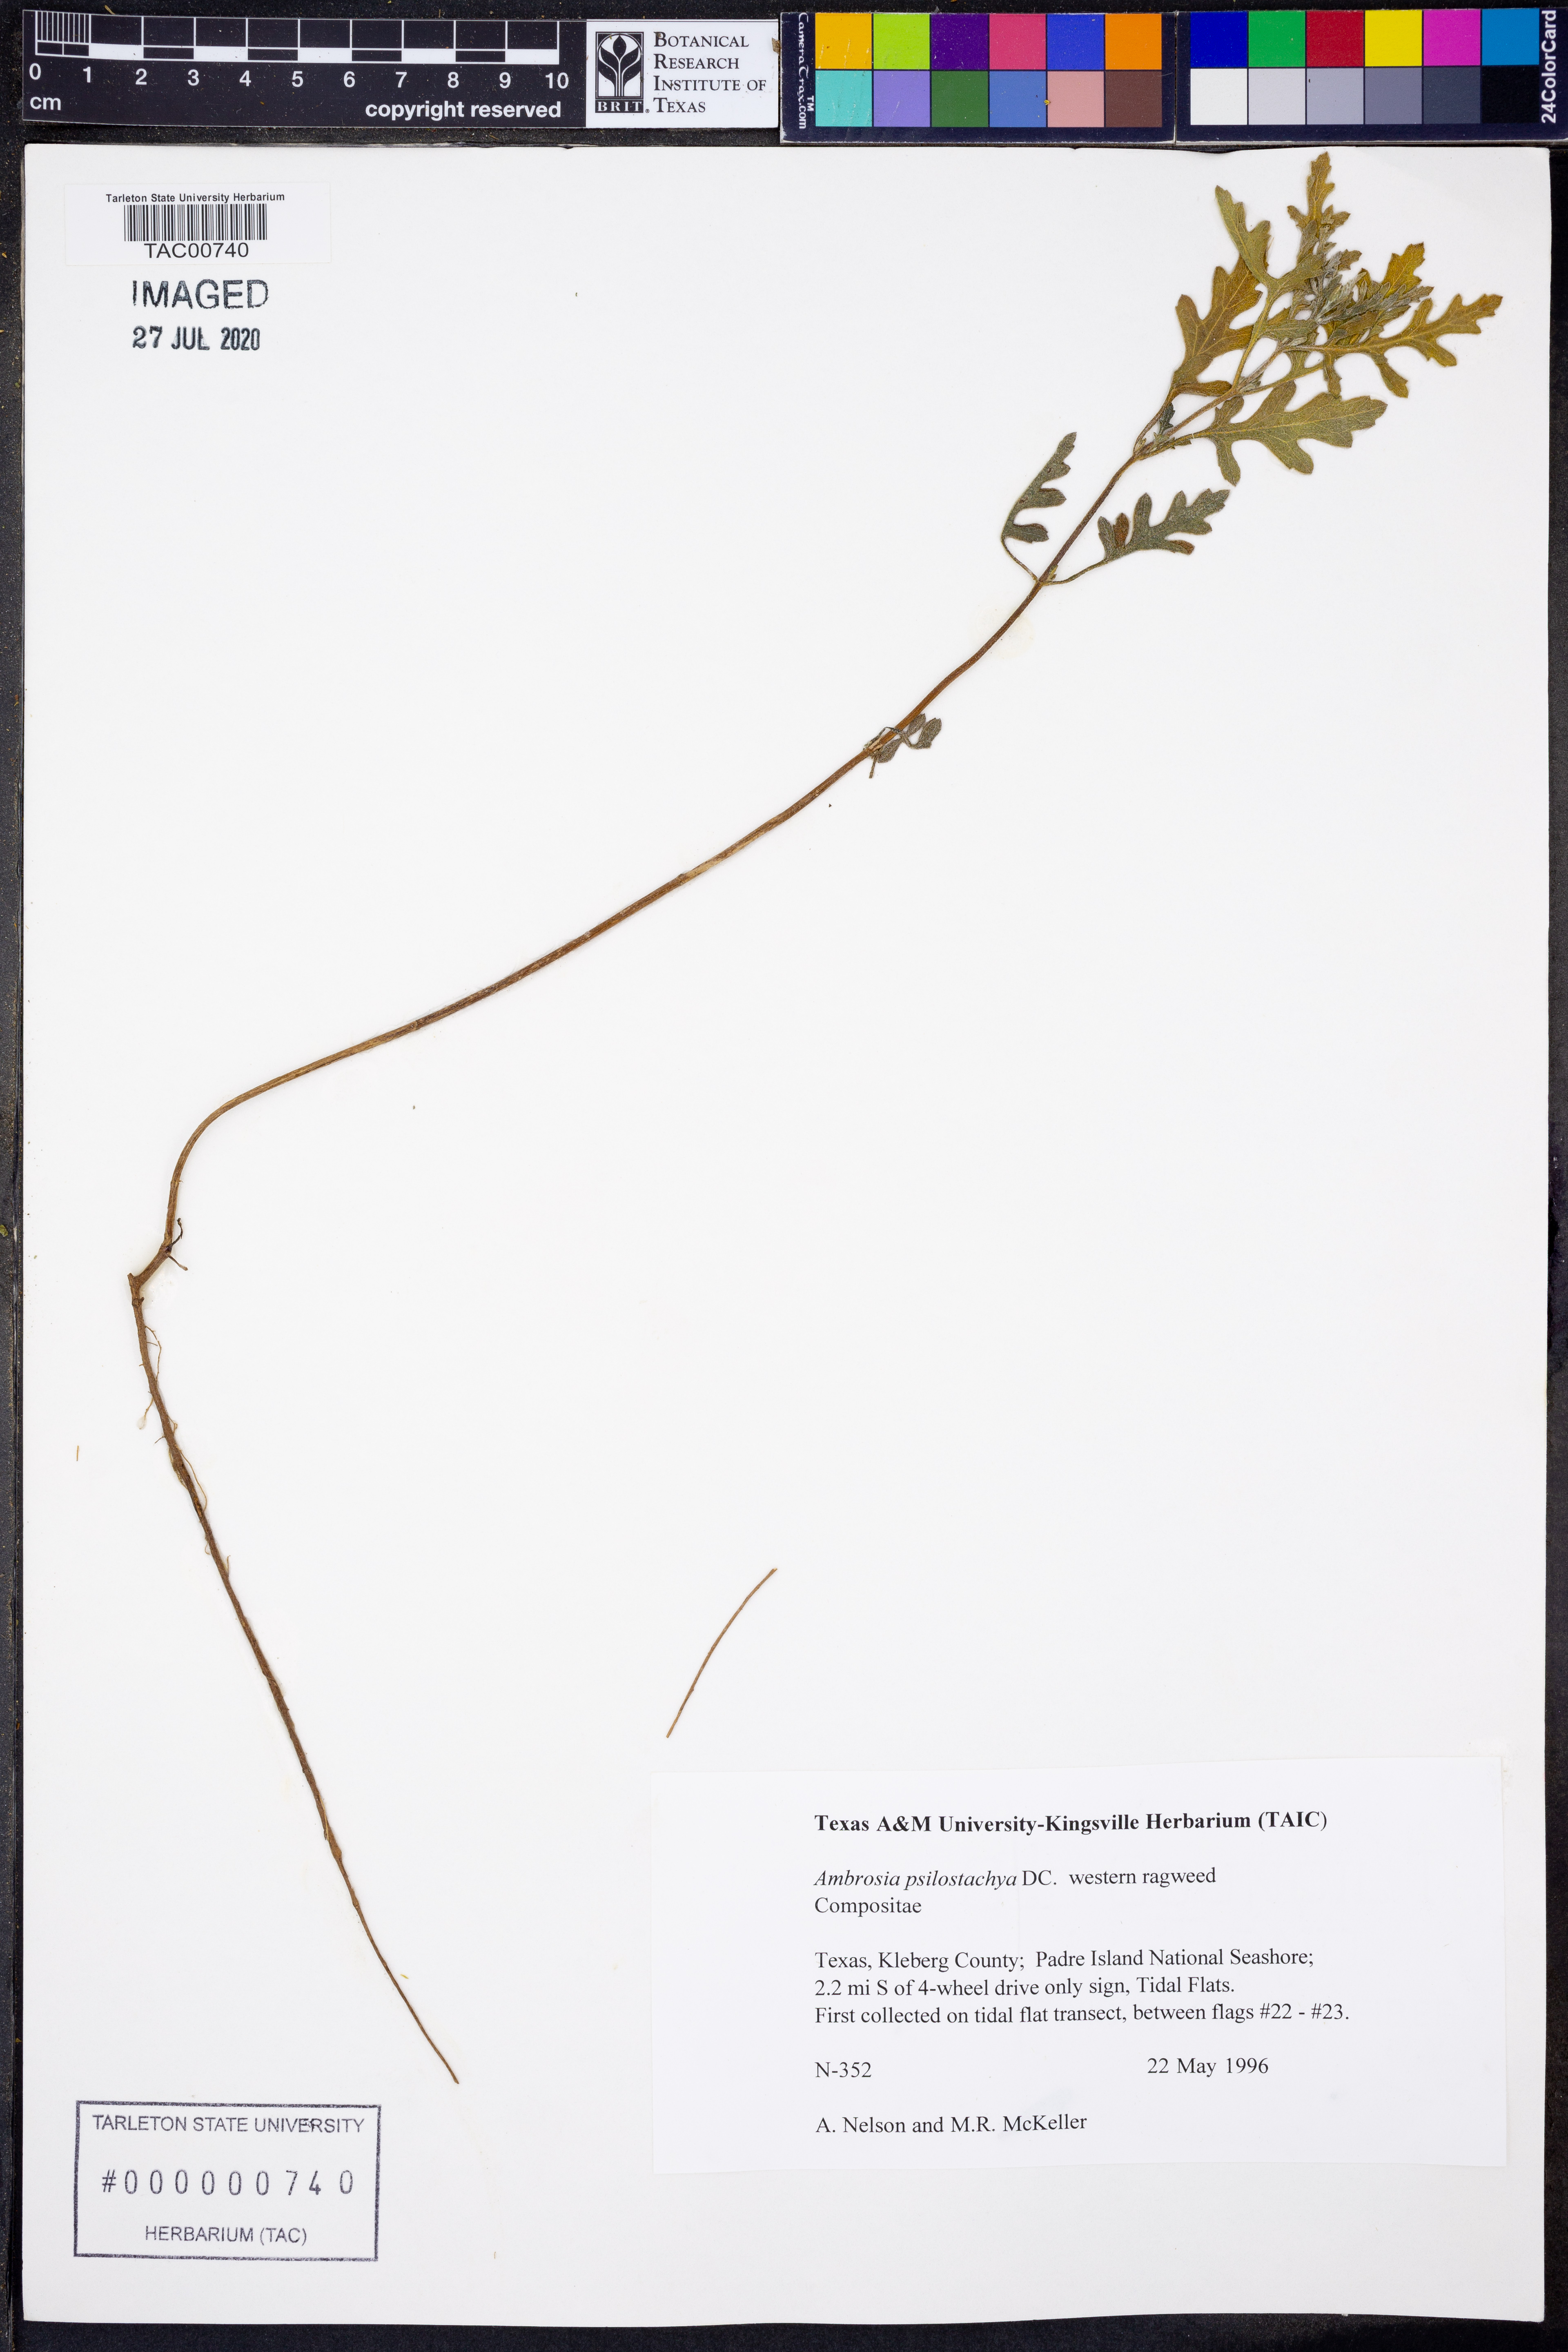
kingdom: Plantae
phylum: Tracheophyta
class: Magnoliopsida
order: Asterales
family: Asteraceae
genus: Ambrosia
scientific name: Ambrosia psilostachya
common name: Perennial ragweed
